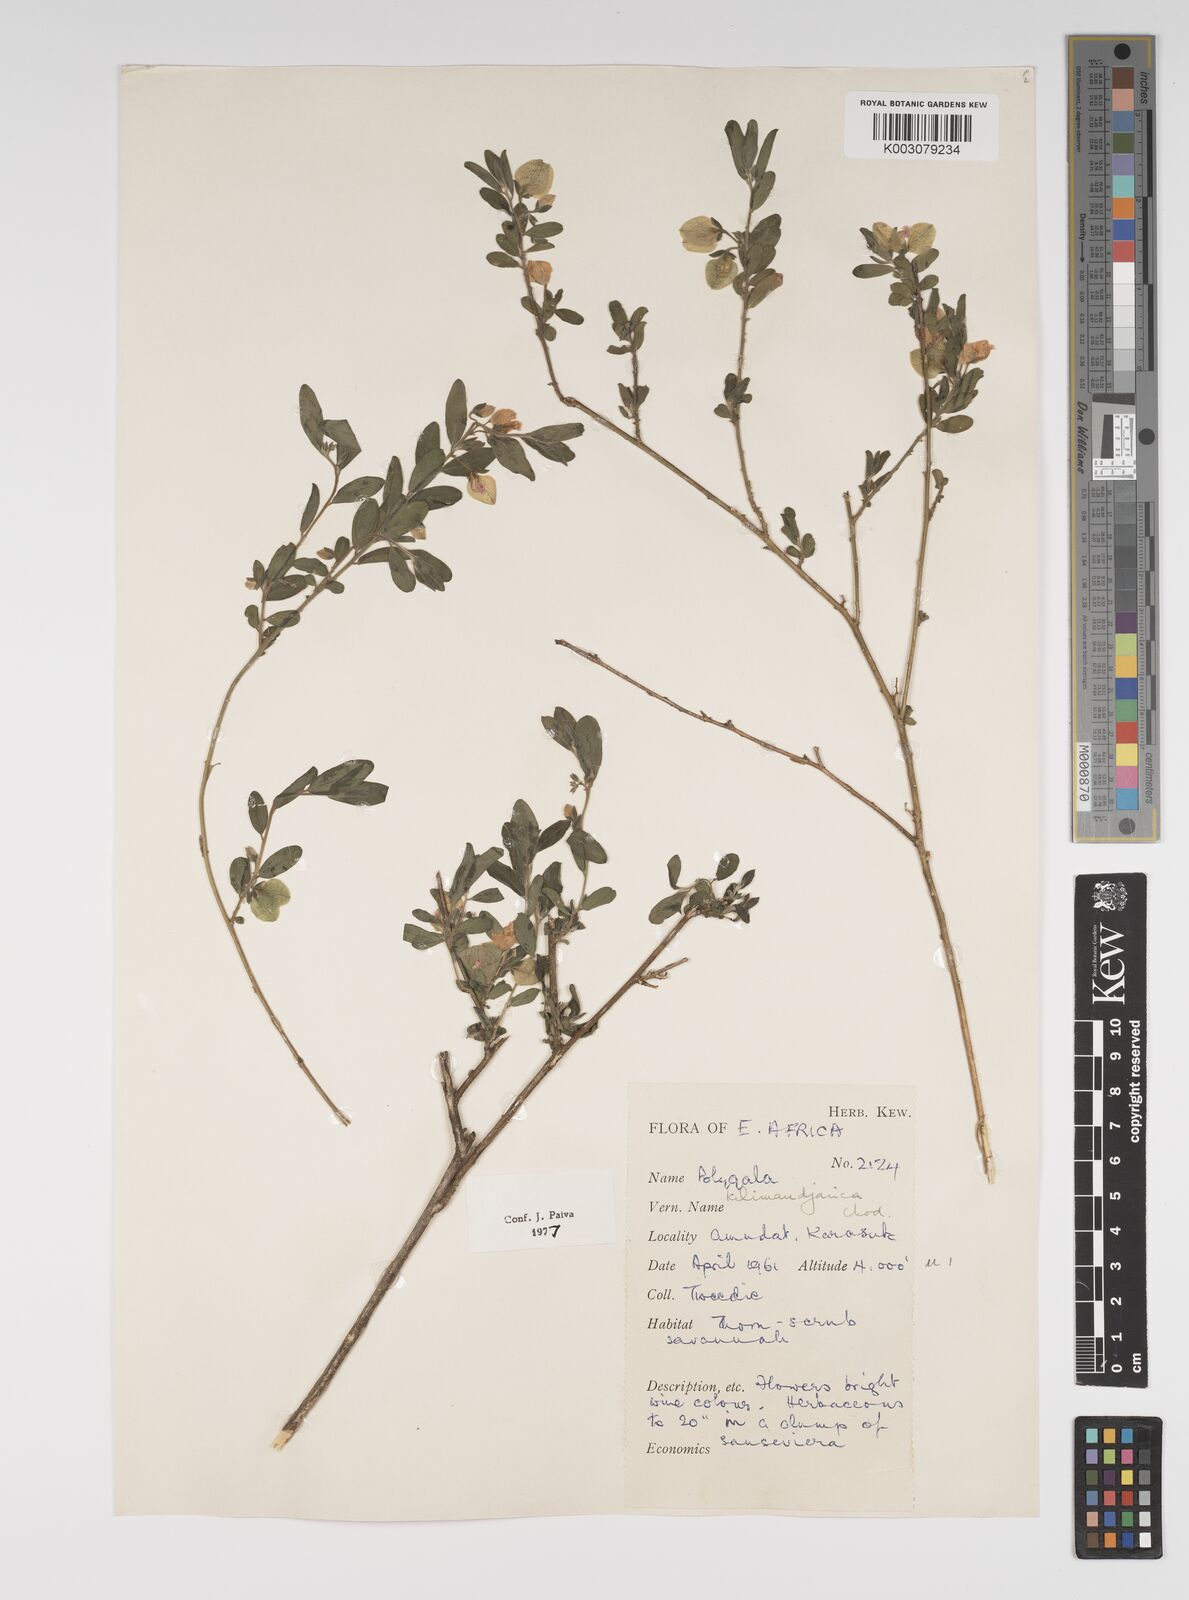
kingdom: Plantae
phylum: Tracheophyta
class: Magnoliopsida
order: Fabales
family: Polygalaceae
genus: Polygala
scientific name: Polygala kilimandjarica
